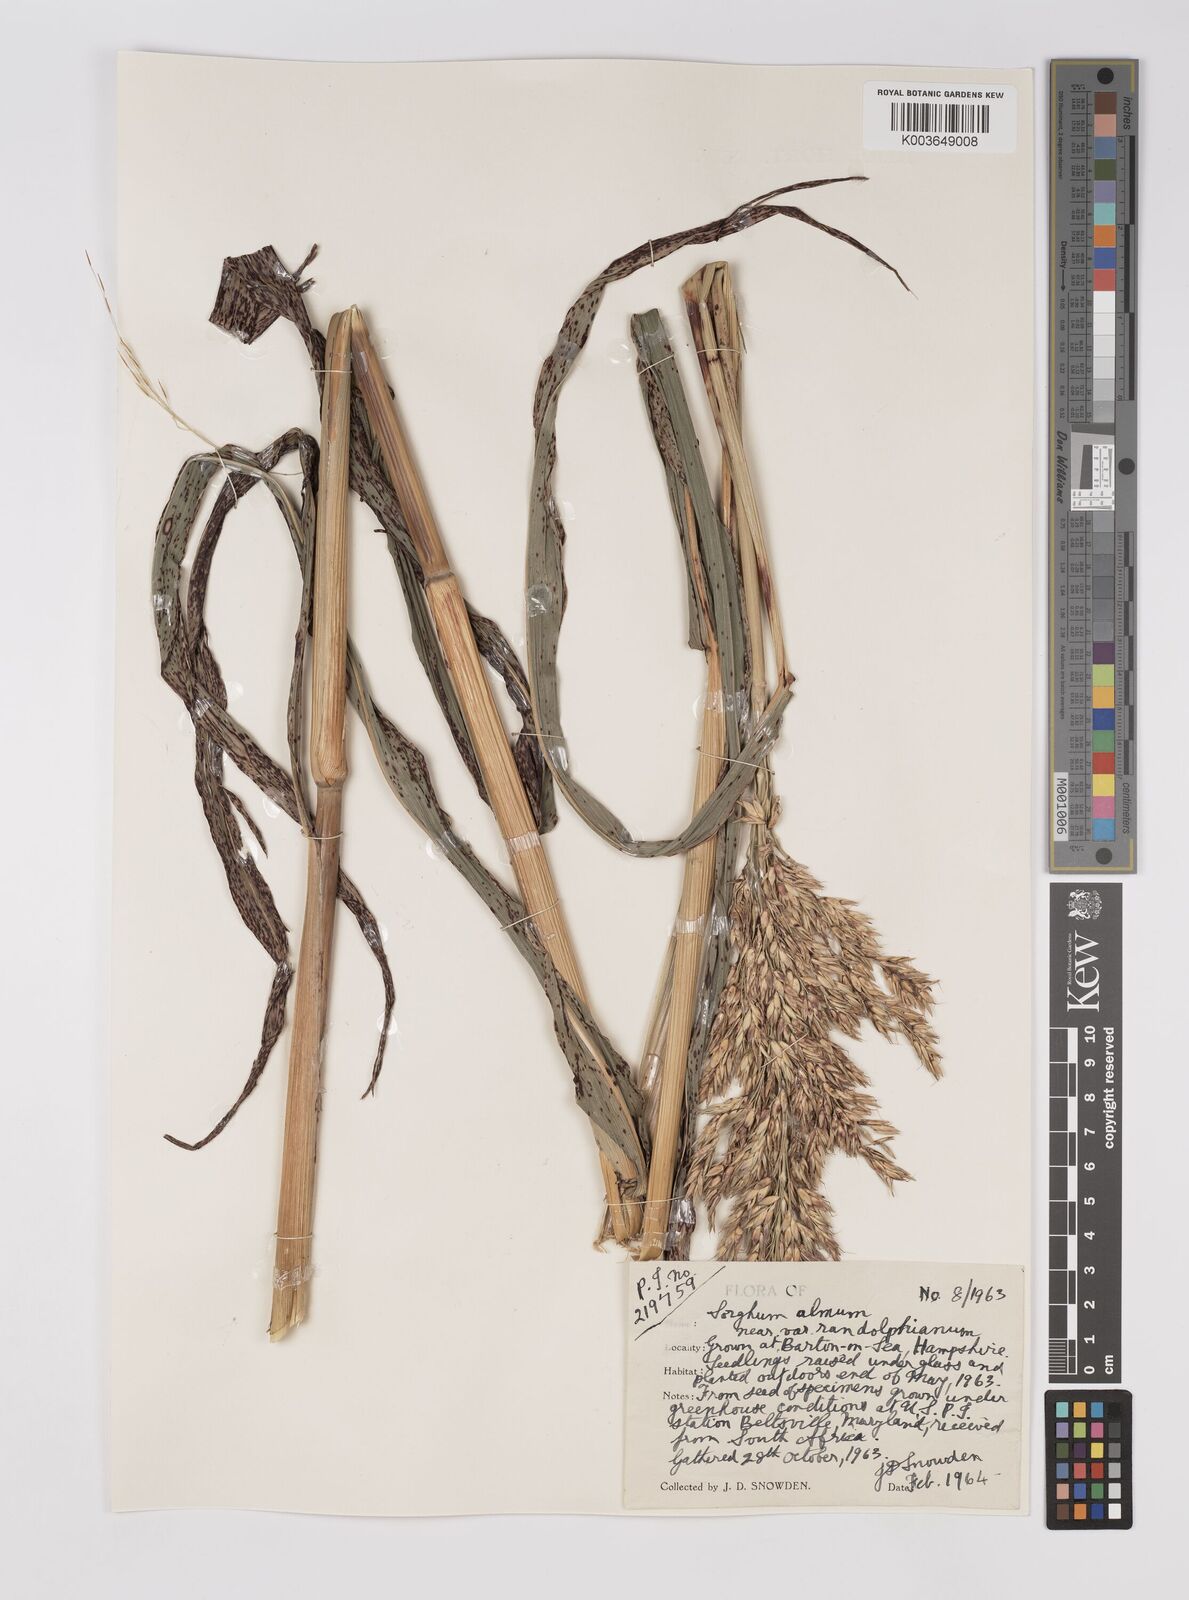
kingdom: Plantae
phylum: Tracheophyta
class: Liliopsida
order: Poales
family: Poaceae
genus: Sorghum
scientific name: Sorghum almum
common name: Columbus grass
